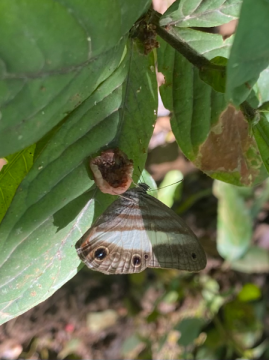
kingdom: Animalia
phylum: Arthropoda
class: Insecta
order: Lepidoptera
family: Nymphalidae
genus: Pareuptychia
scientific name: Pareuptychia metaleuca
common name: White-banded Satyr
